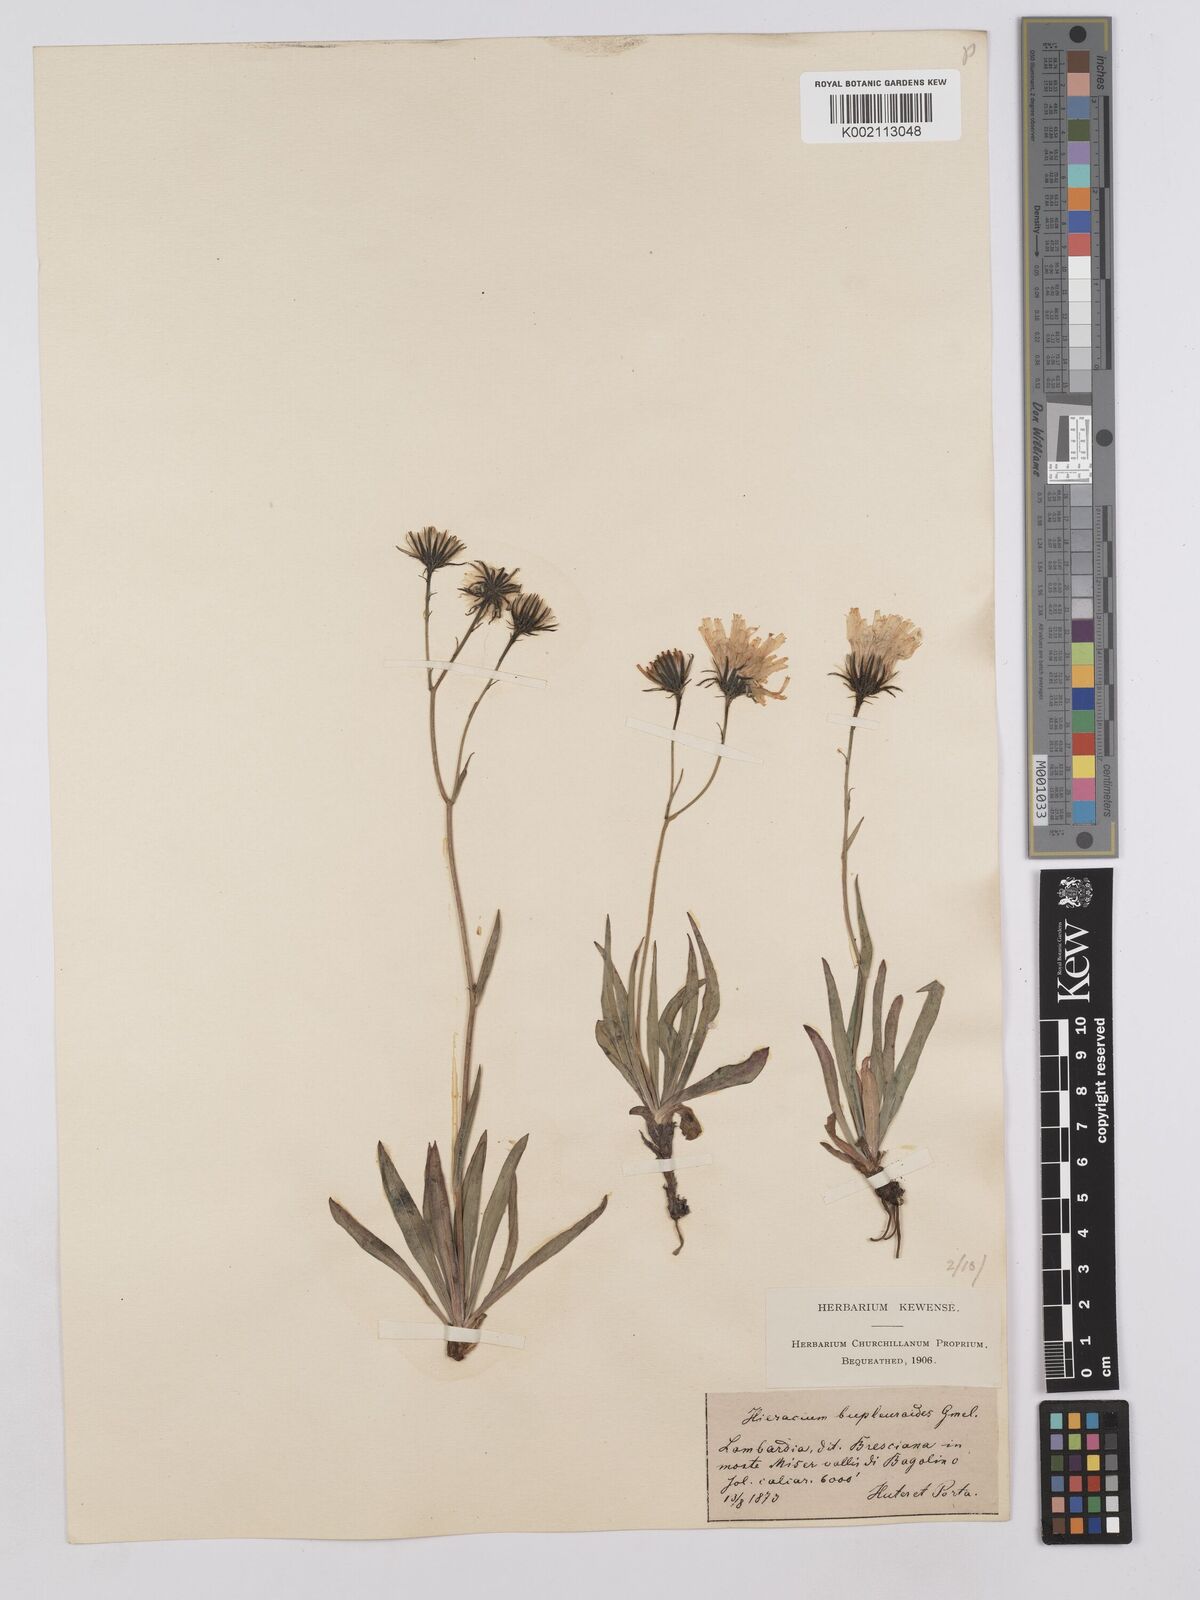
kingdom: Plantae
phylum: Tracheophyta
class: Magnoliopsida
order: Asterales
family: Asteraceae
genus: Hieracium
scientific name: Hieracium bupleuroides
